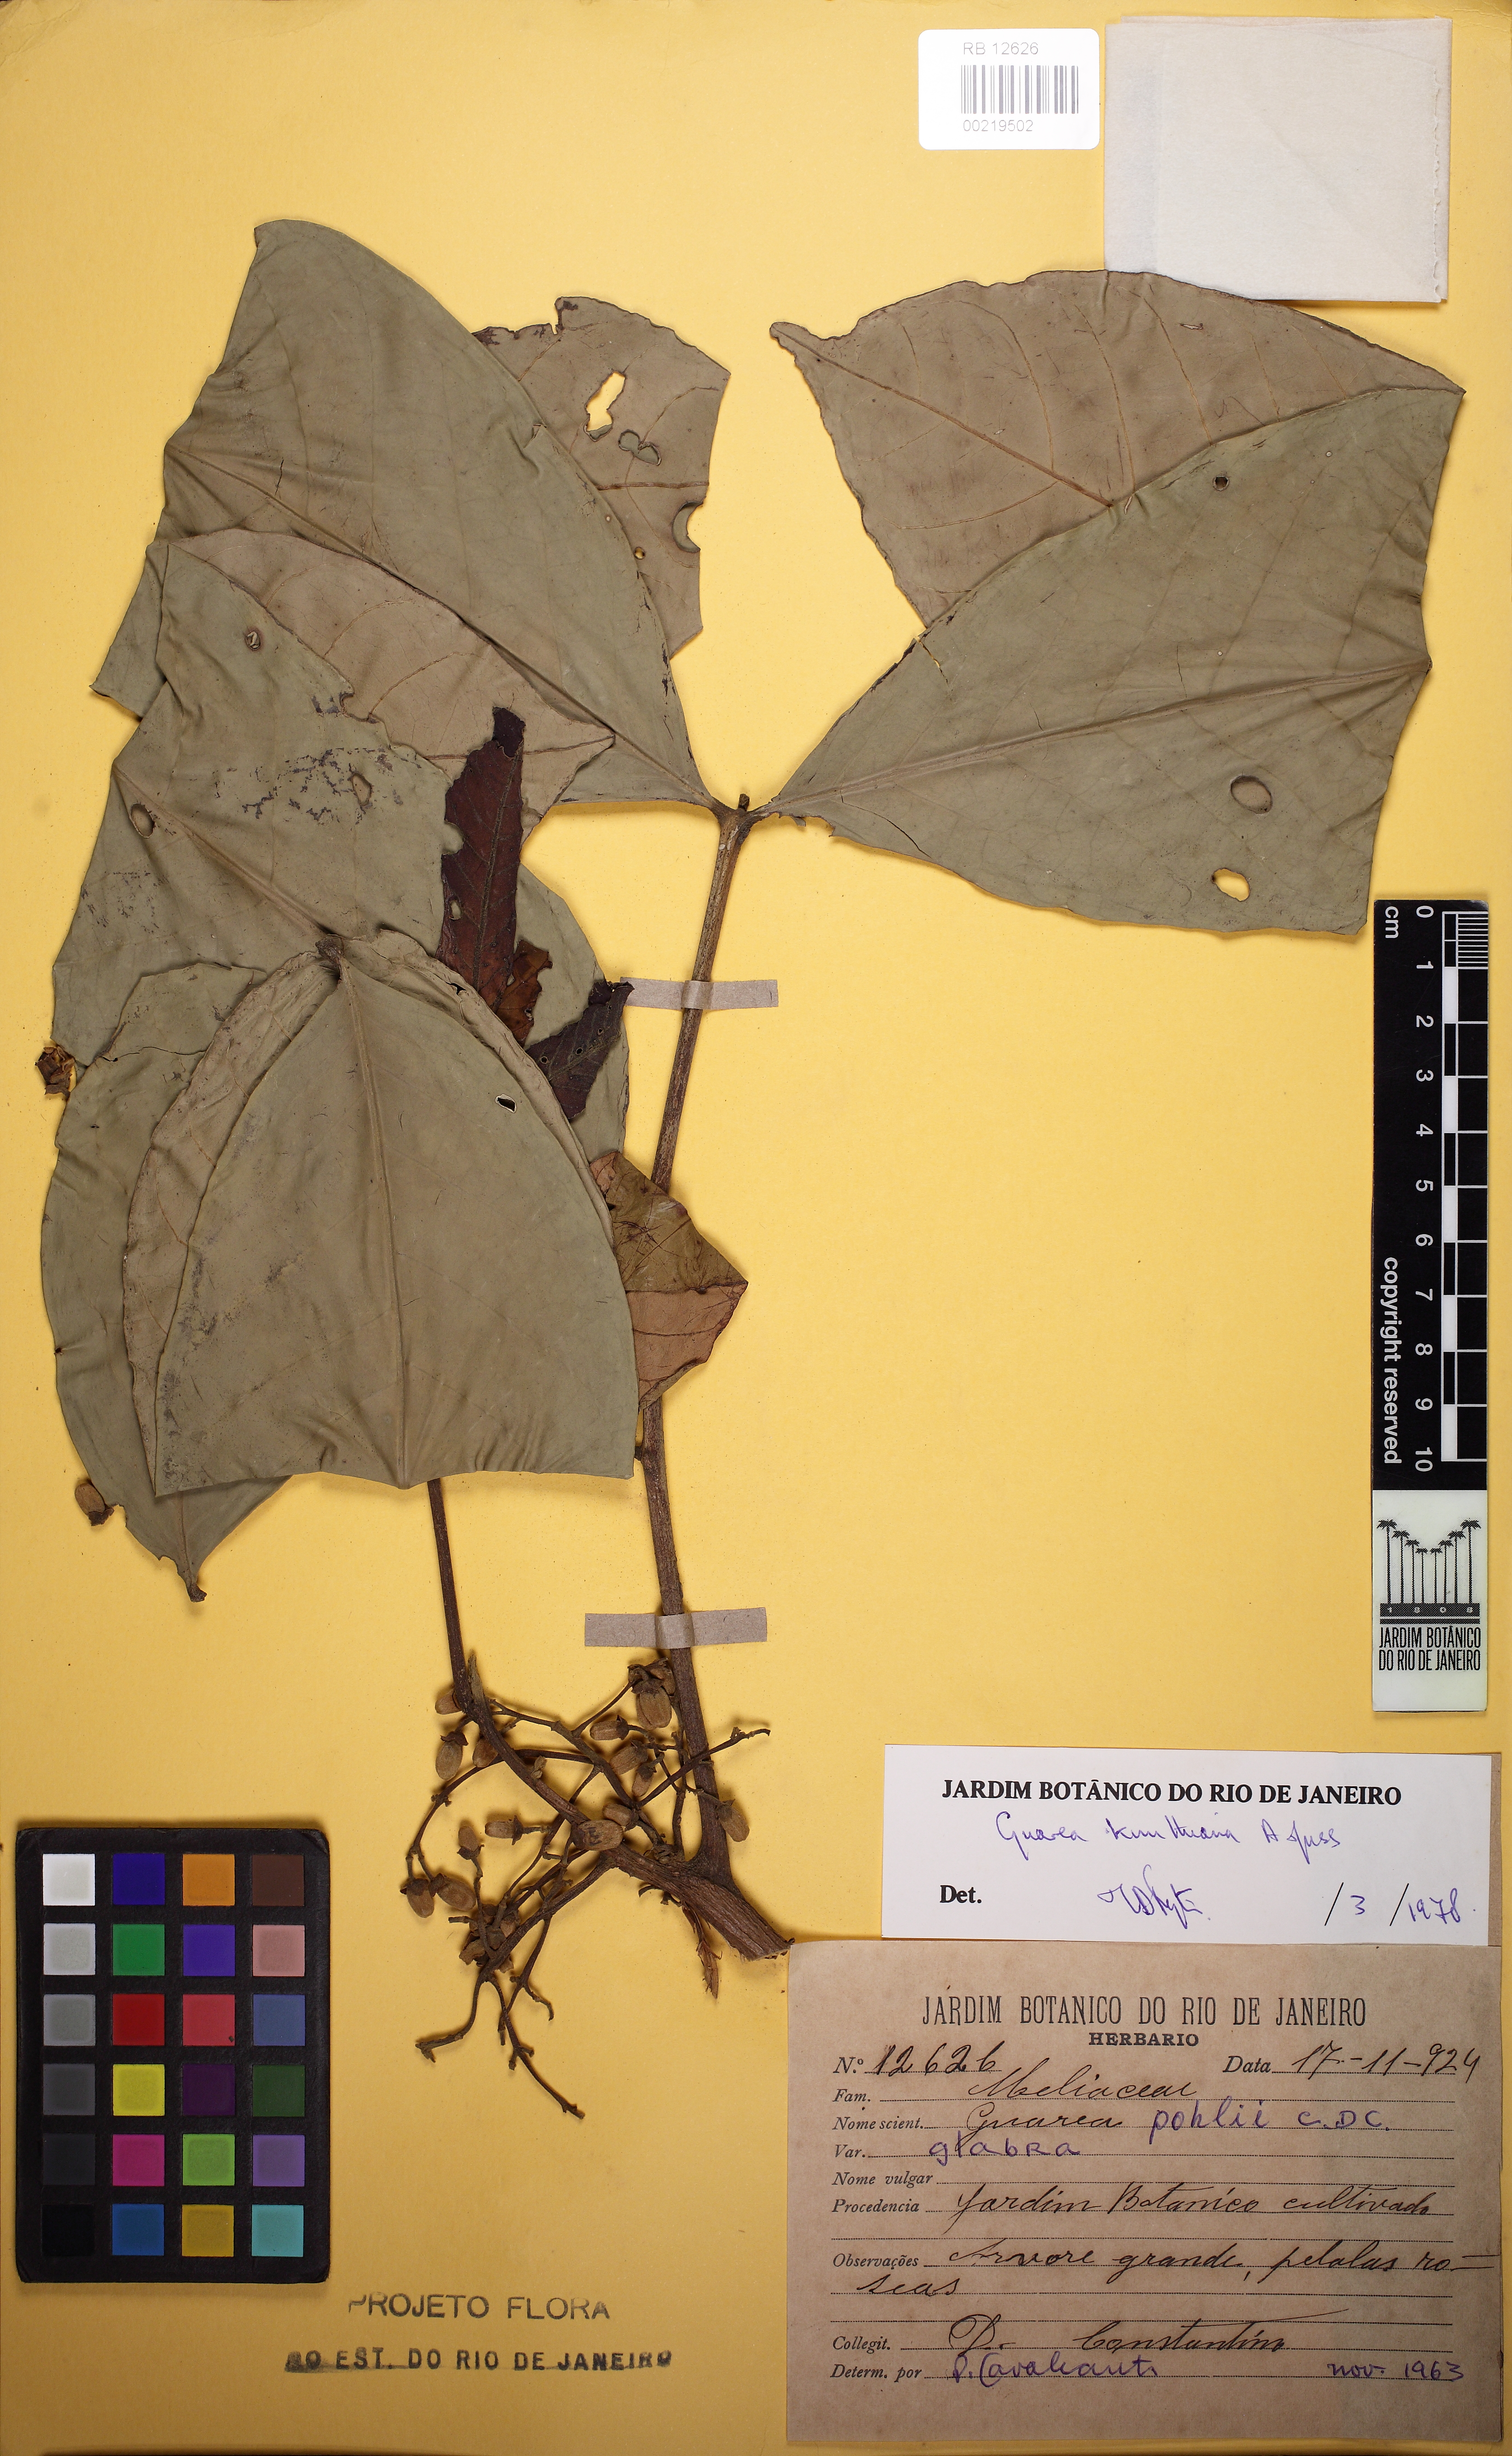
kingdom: Plantae
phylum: Tracheophyta
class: Magnoliopsida
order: Sapindales
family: Meliaceae
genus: Guarea
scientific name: Guarea kunthiana
